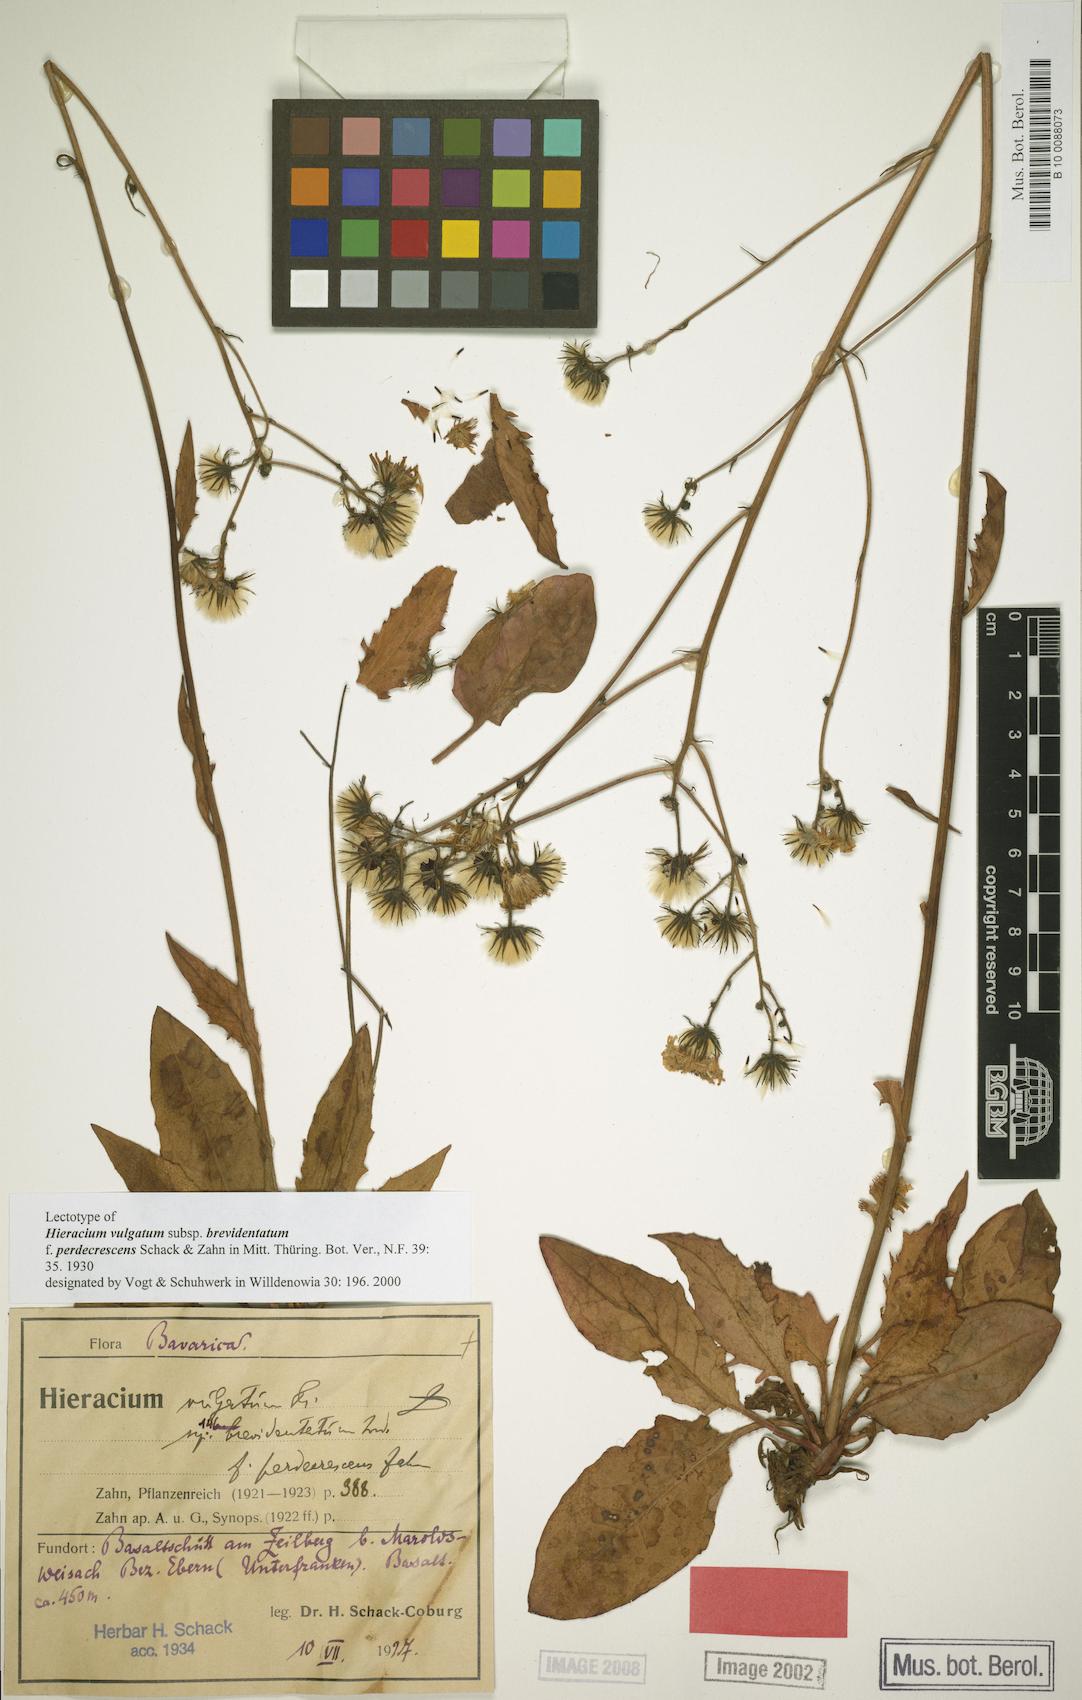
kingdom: Plantae
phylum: Tracheophyta
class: Magnoliopsida
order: Asterales
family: Asteraceae
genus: Hieracium
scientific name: Hieracium vulgatum
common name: Common hawkweed
